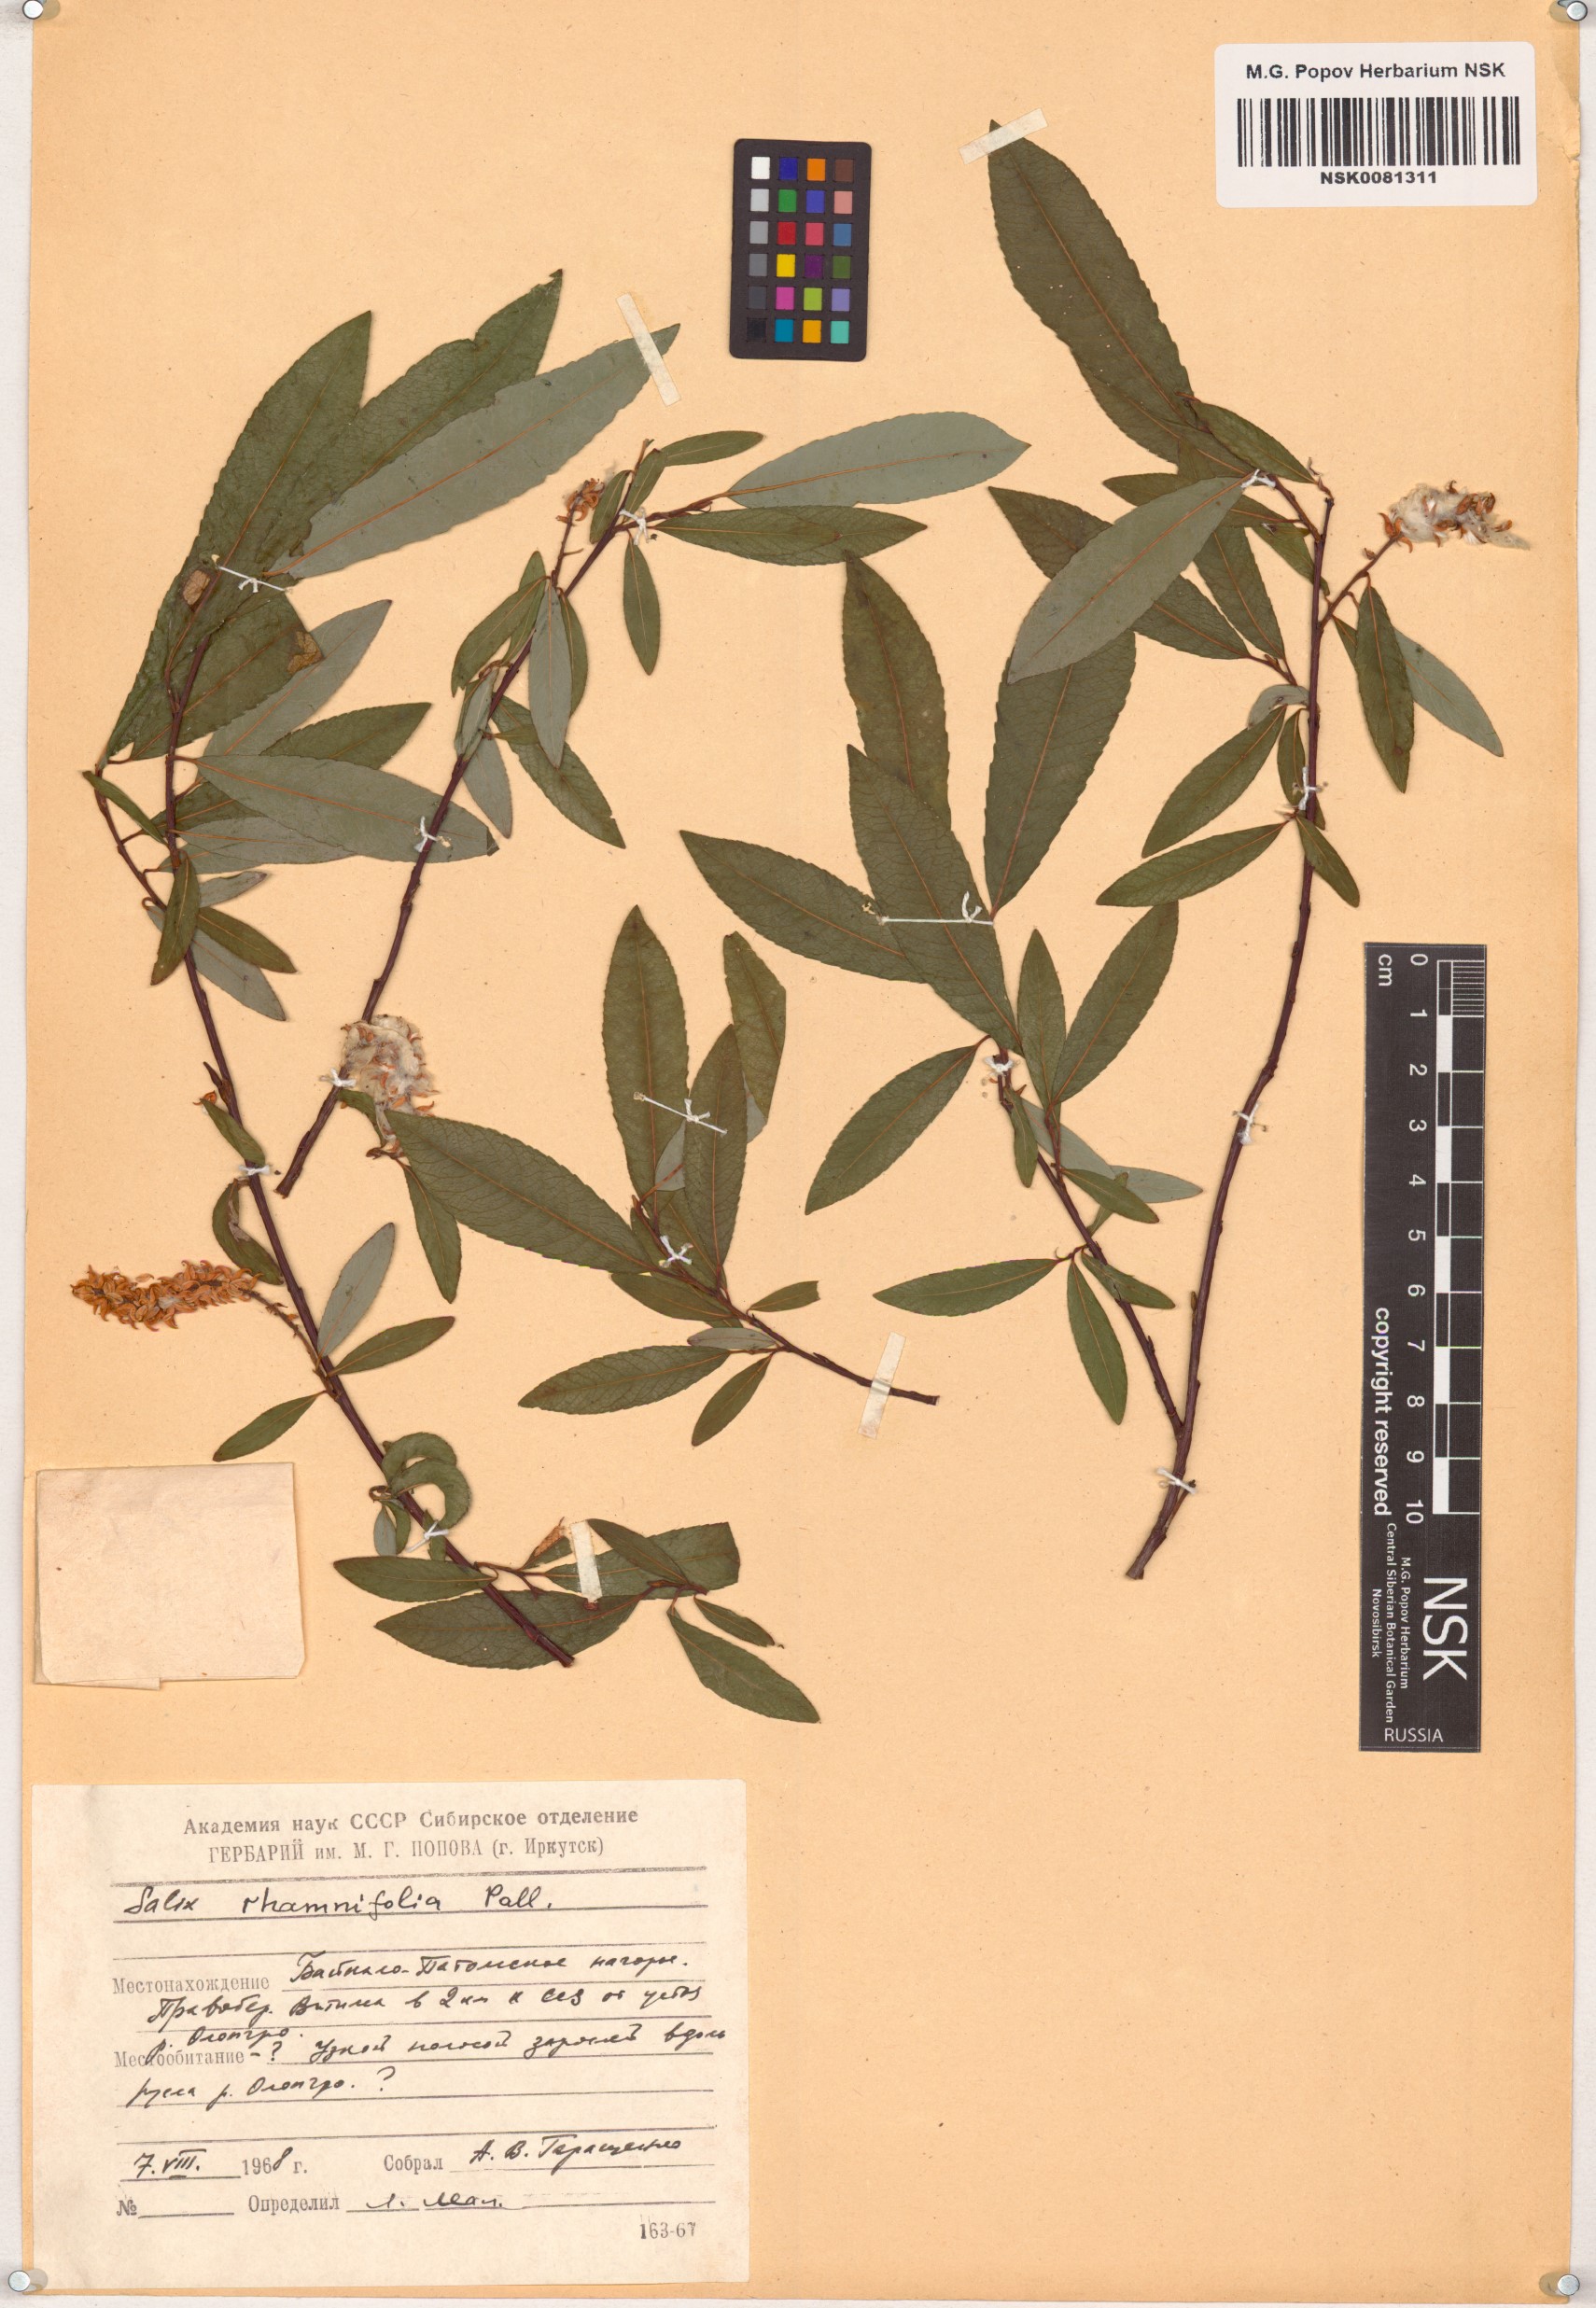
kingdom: Plantae
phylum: Tracheophyta
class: Magnoliopsida
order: Malpighiales
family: Salicaceae
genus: Salix
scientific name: Salix rhamnifolia
